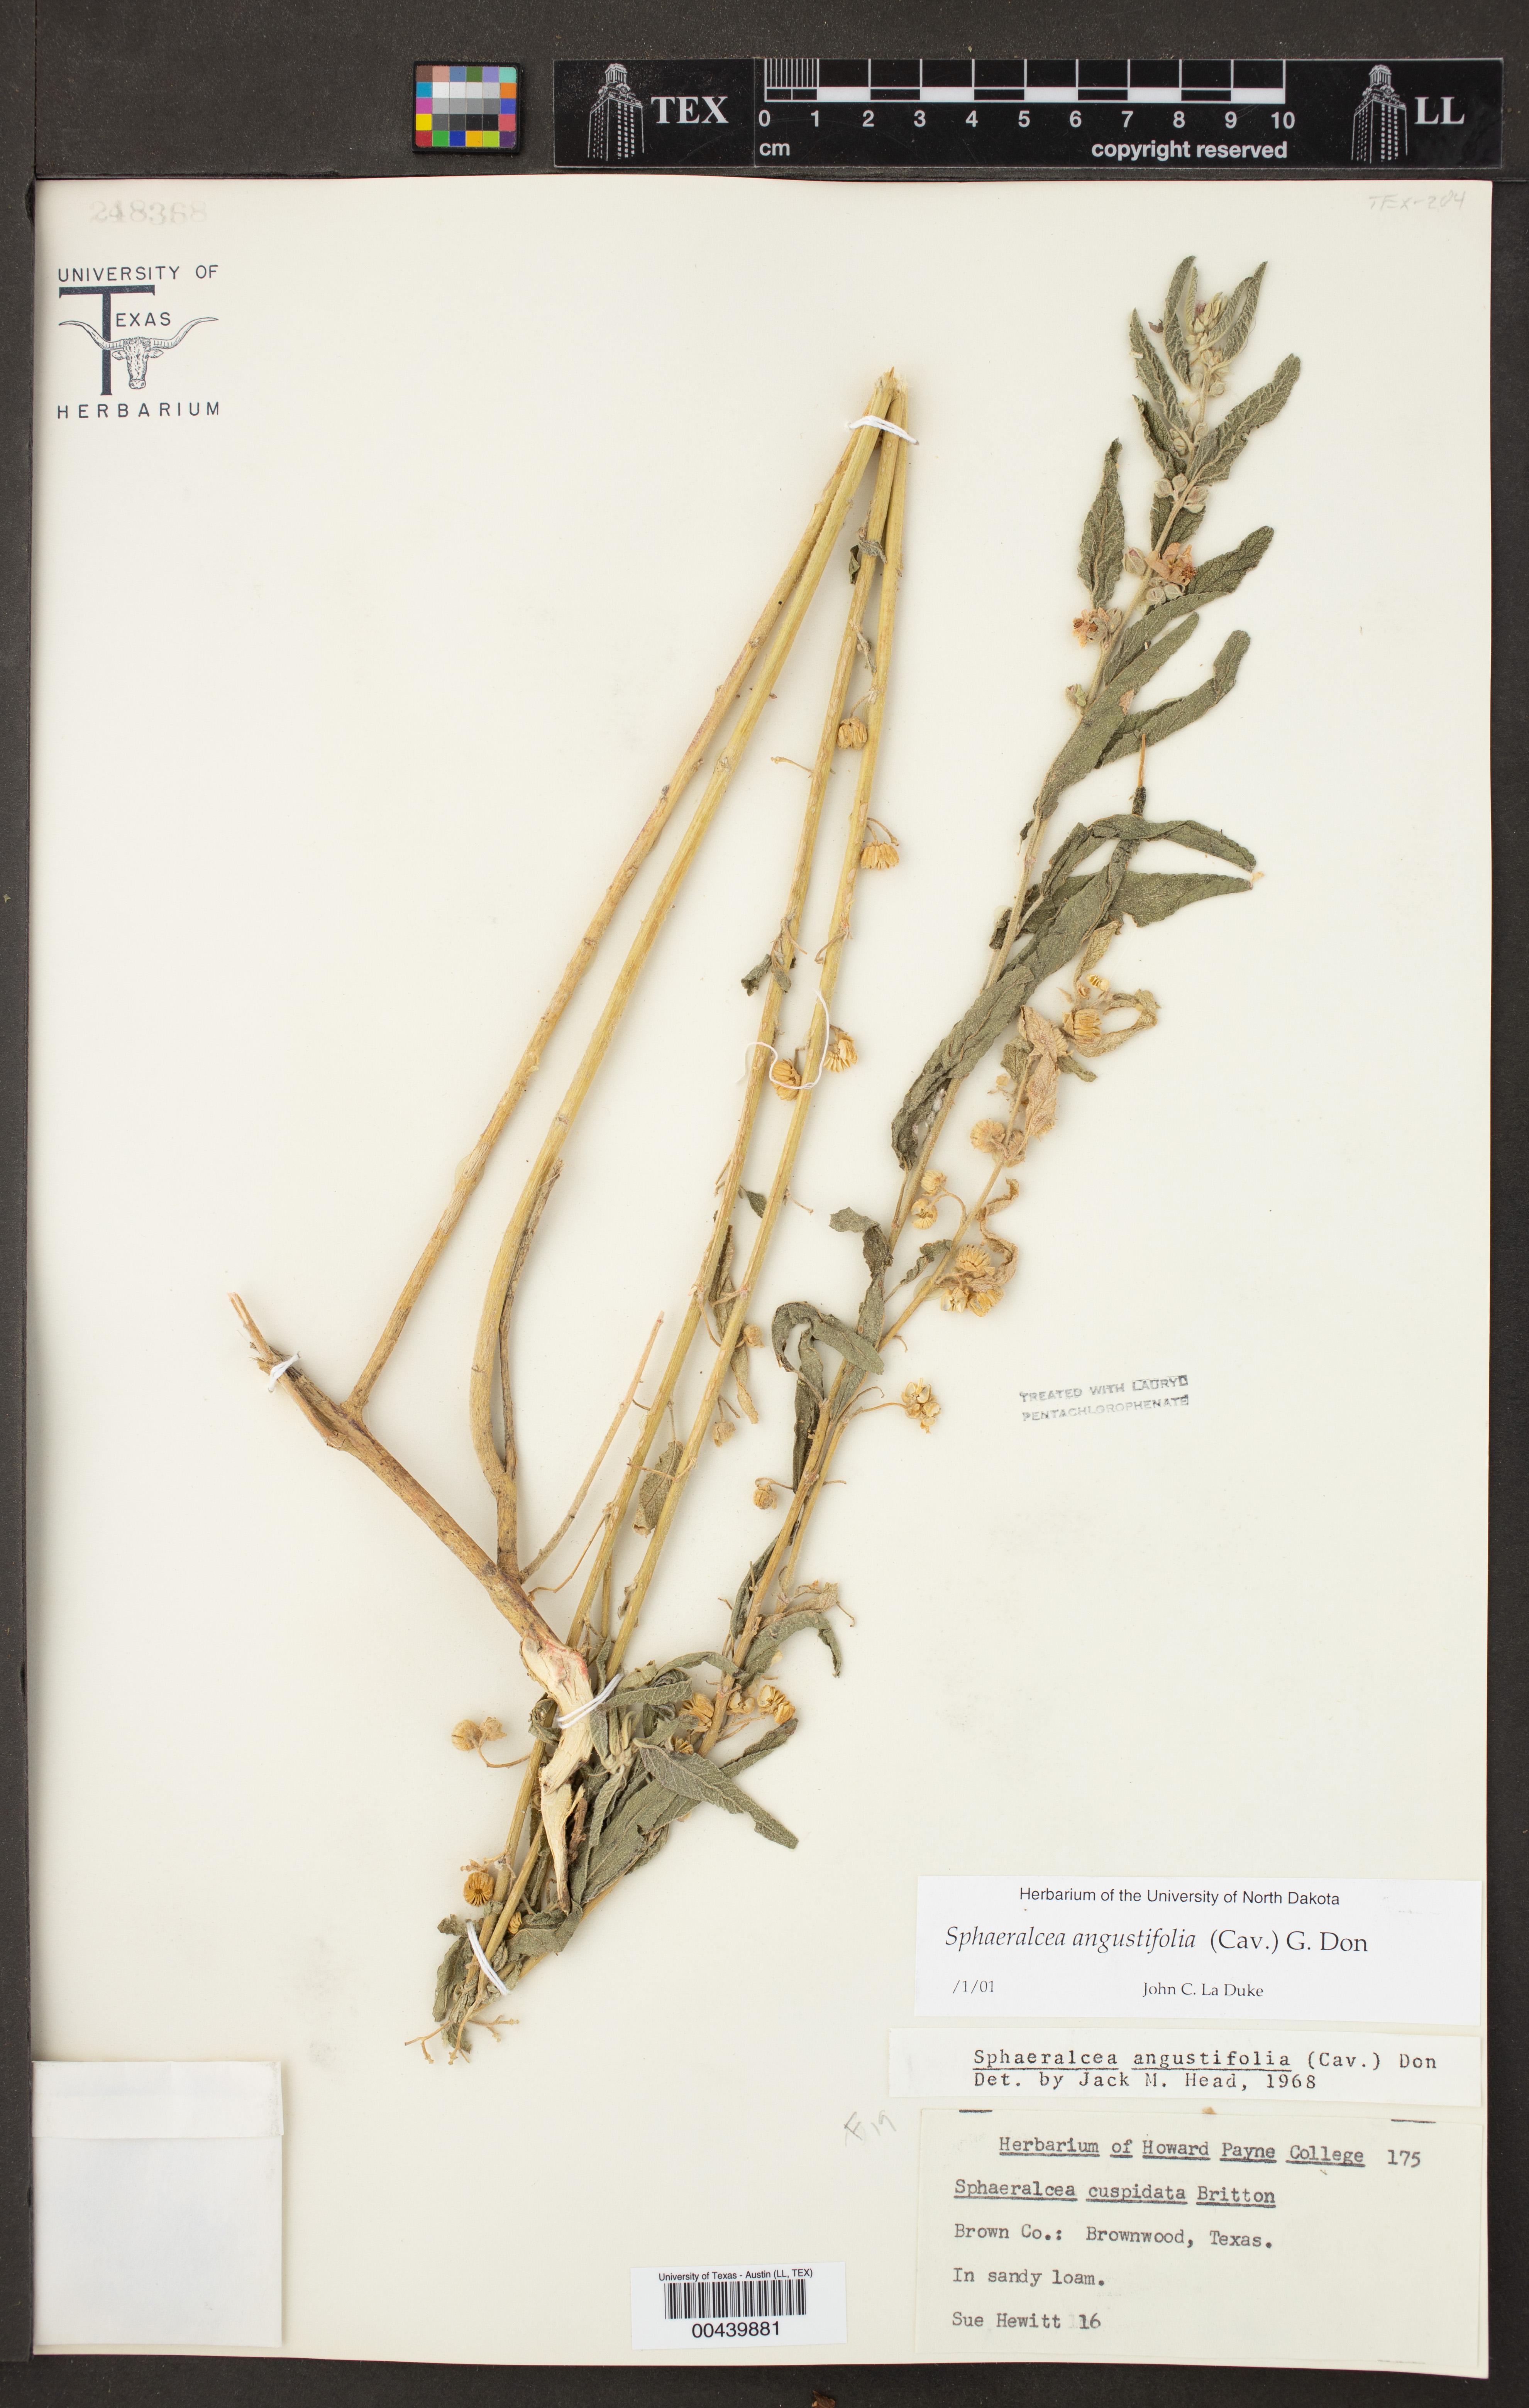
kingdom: Plantae
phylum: Tracheophyta
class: Magnoliopsida
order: Malvales
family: Malvaceae
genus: Sphaeralcea
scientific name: Sphaeralcea angustifolia
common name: Copper globe-mallow
